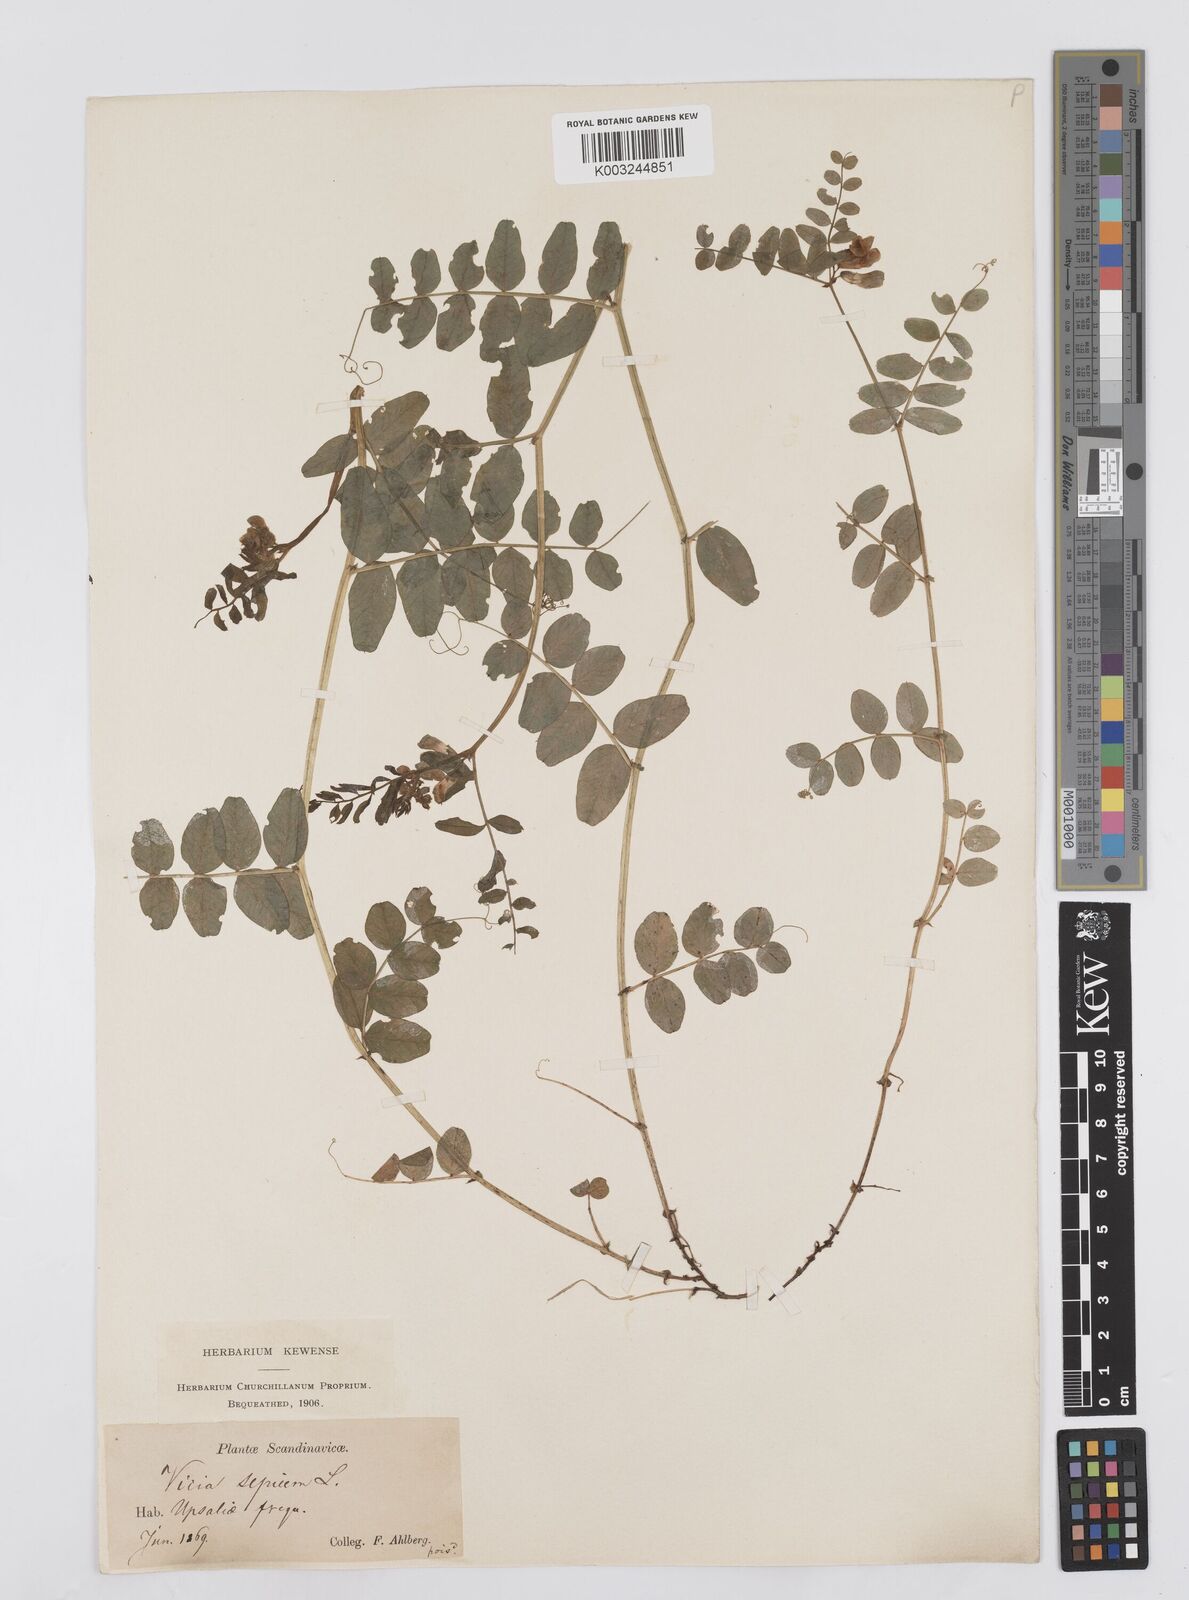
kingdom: Plantae
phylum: Tracheophyta
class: Magnoliopsida
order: Fabales
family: Fabaceae
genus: Vicia
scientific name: Vicia sepium
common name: Bush vetch
